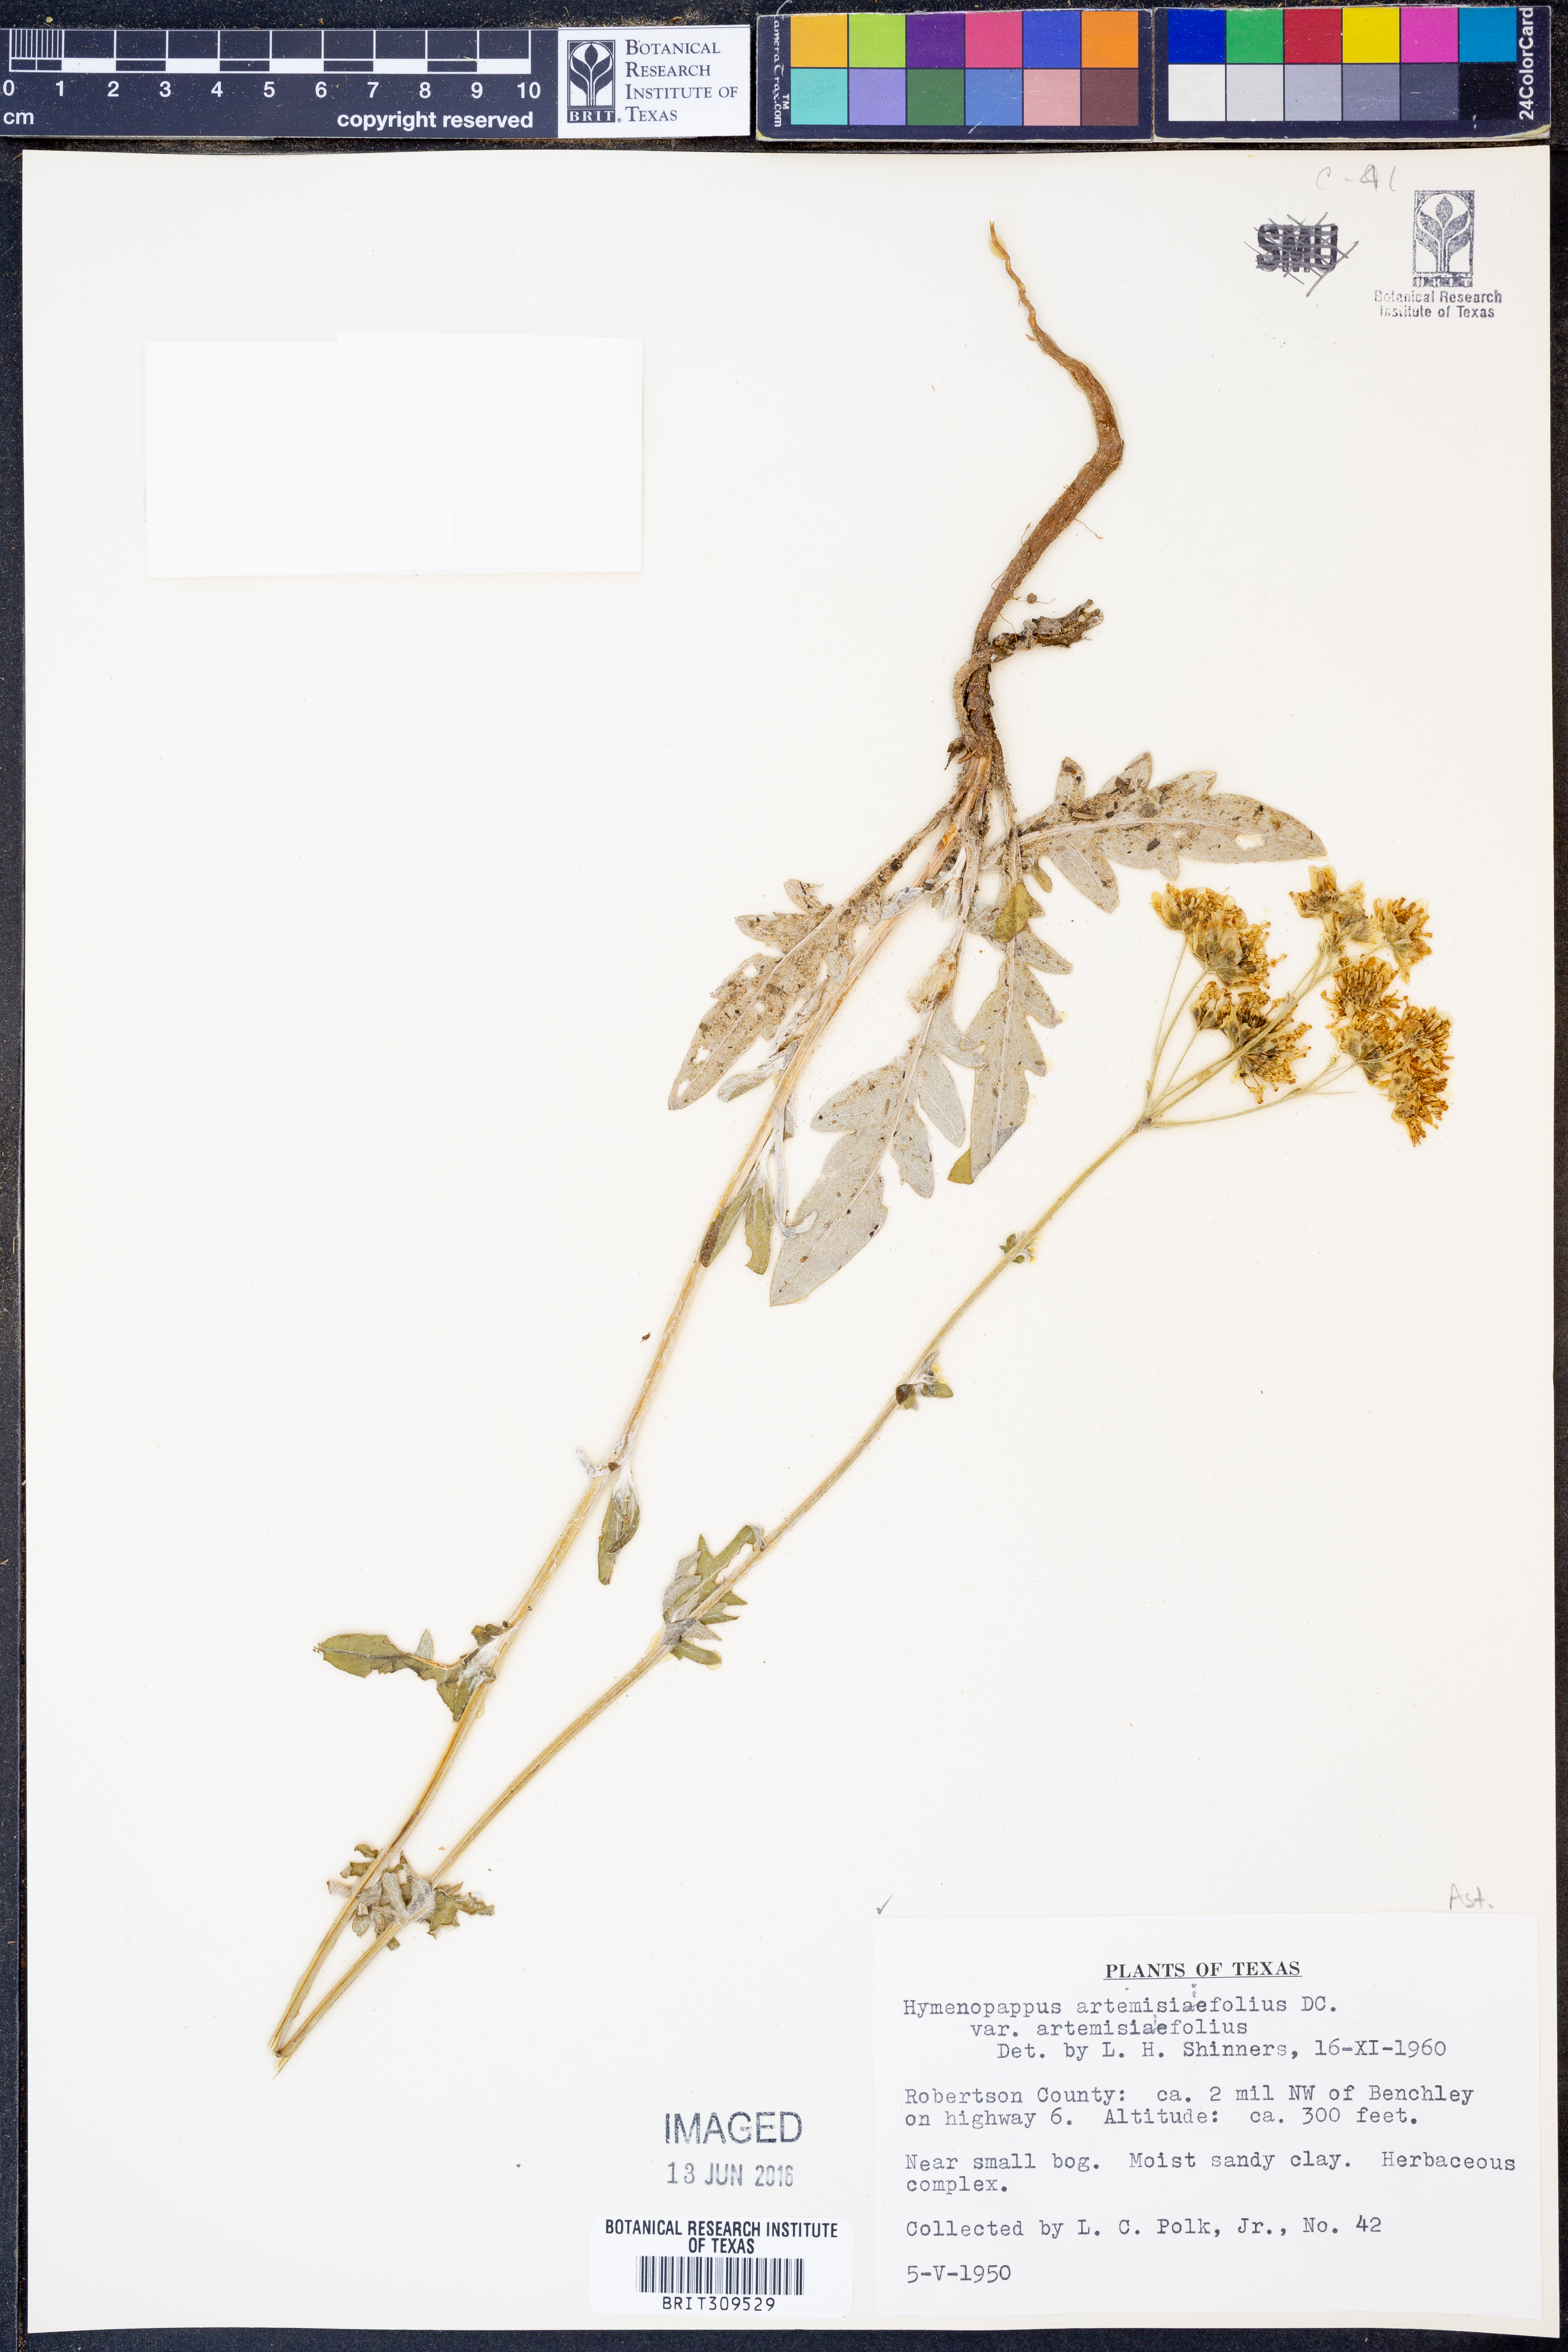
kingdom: Plantae
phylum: Tracheophyta
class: Magnoliopsida
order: Asterales
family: Asteraceae
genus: Hymenopappus
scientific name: Hymenopappus artemisiifolius
